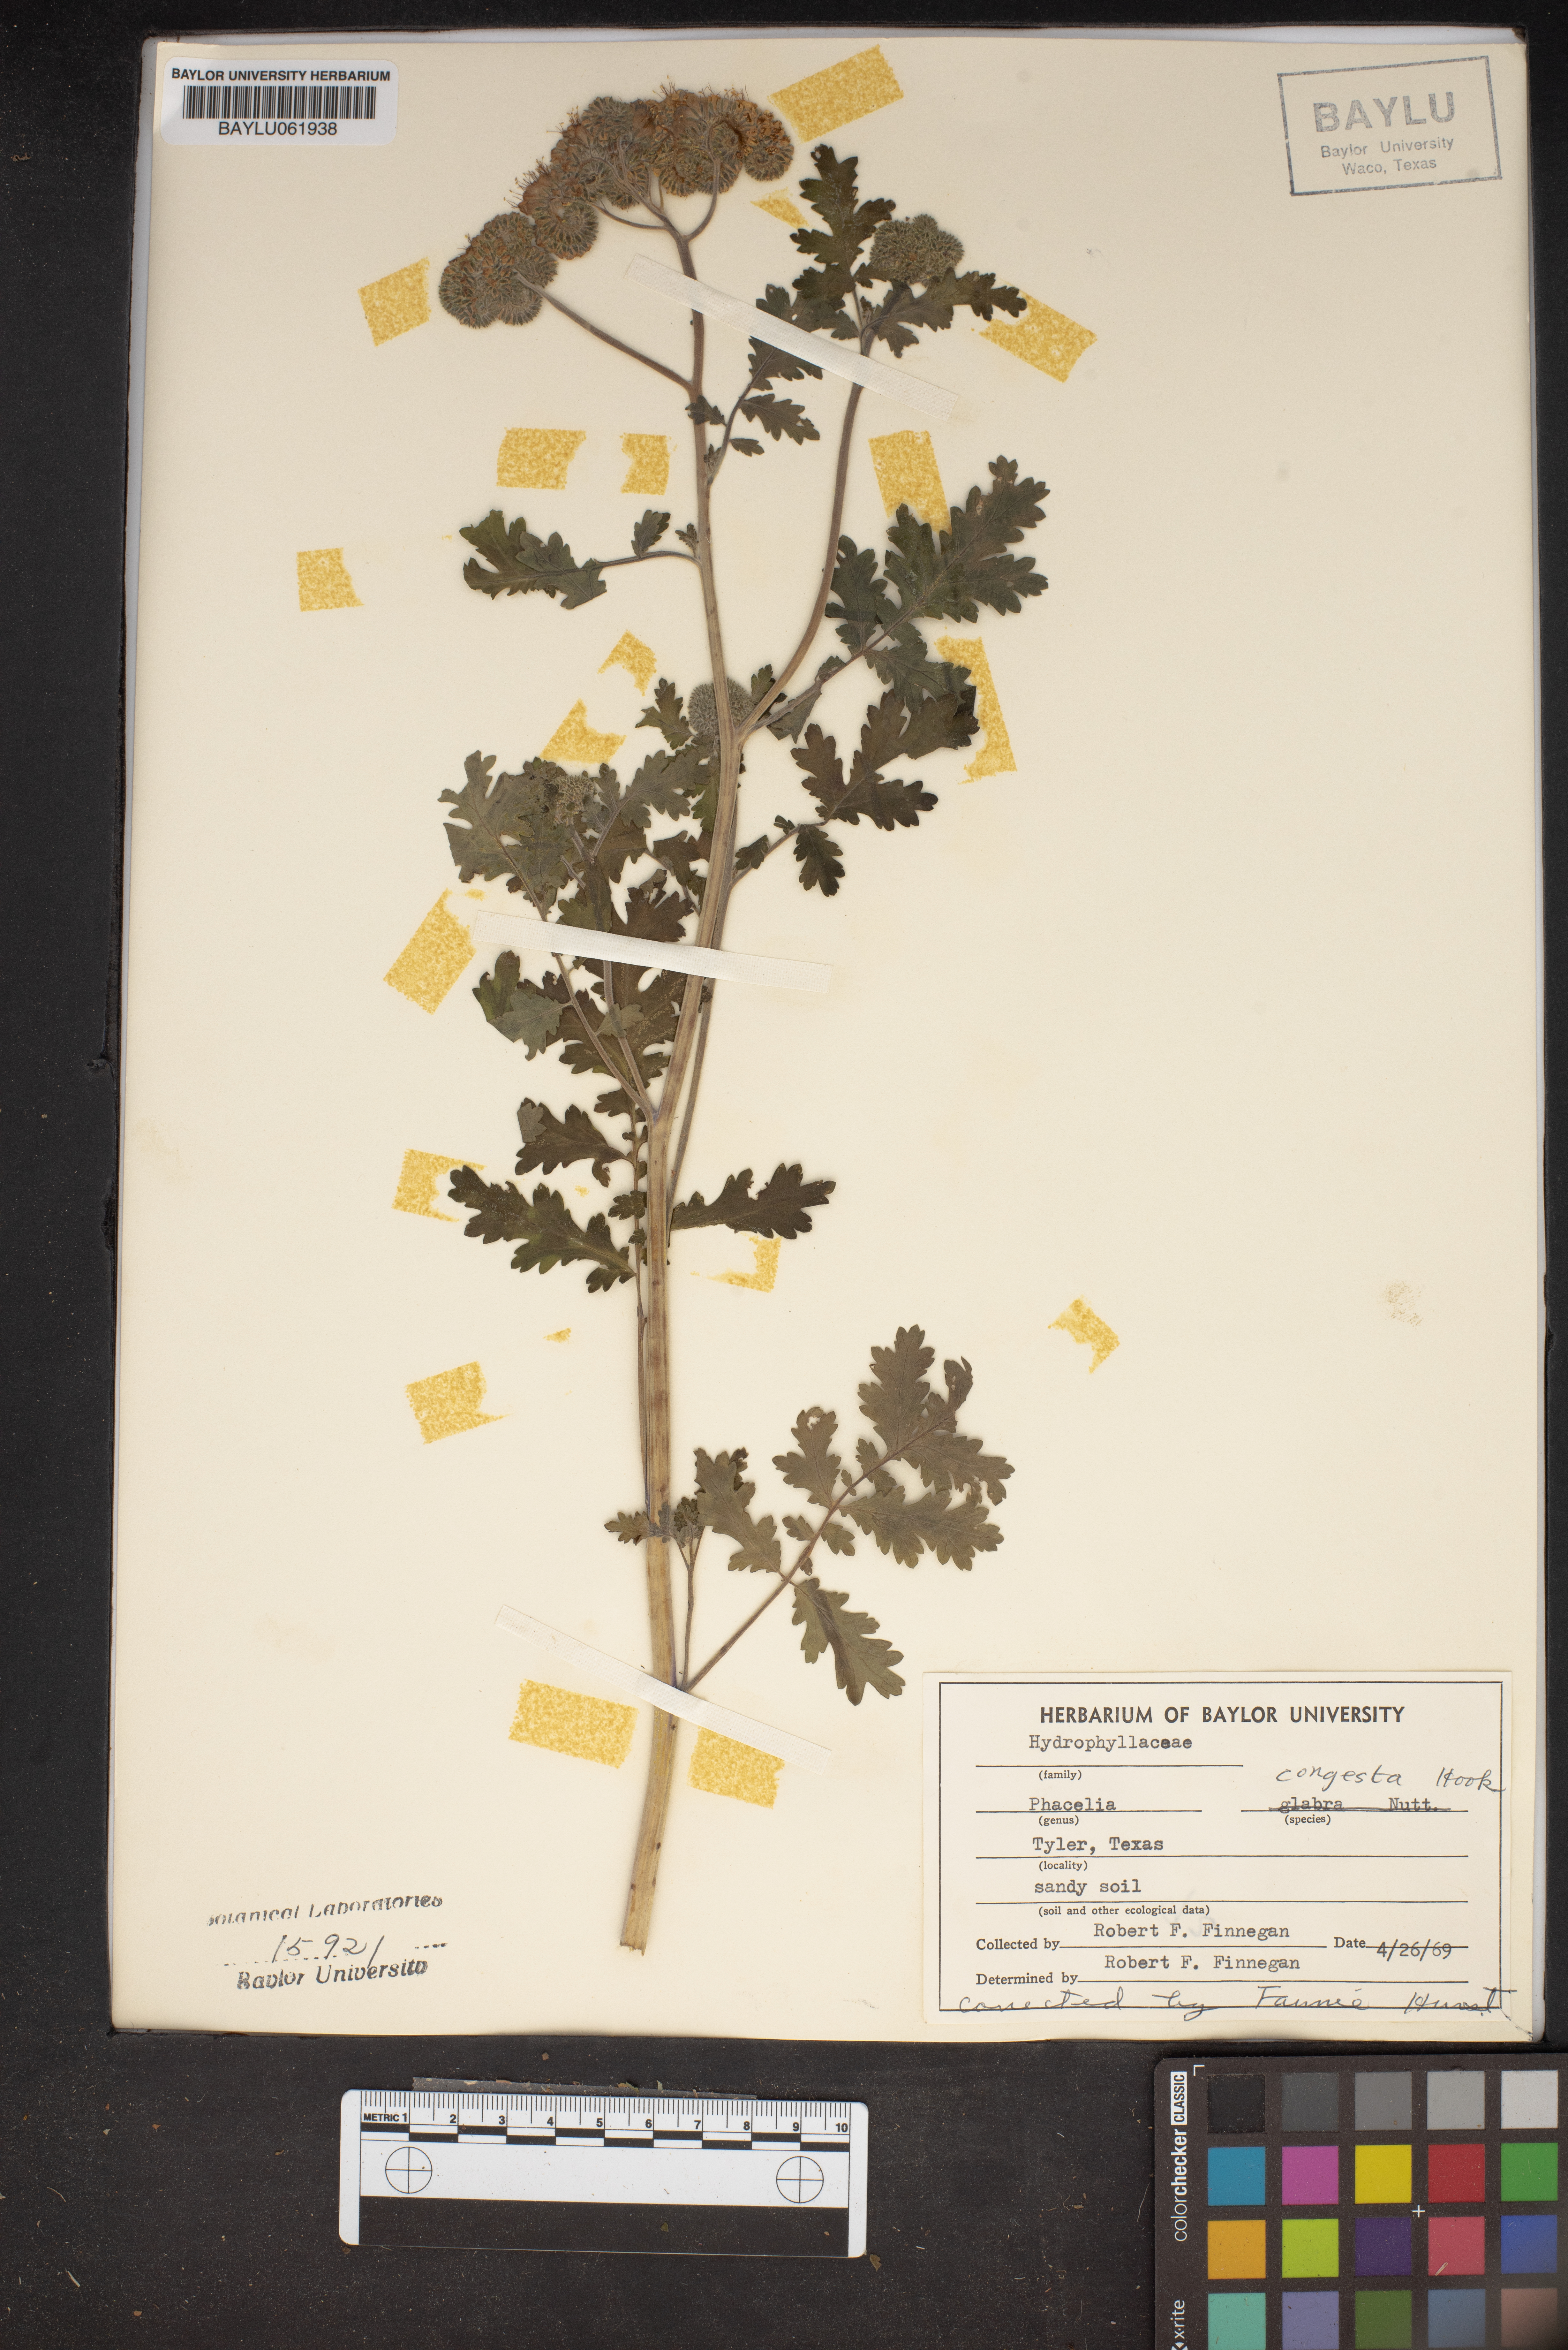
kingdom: Plantae
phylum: Tracheophyta
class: Magnoliopsida
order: Boraginales
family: Hydrophyllaceae
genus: Phacelia
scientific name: Phacelia congesta
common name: Blue curls
